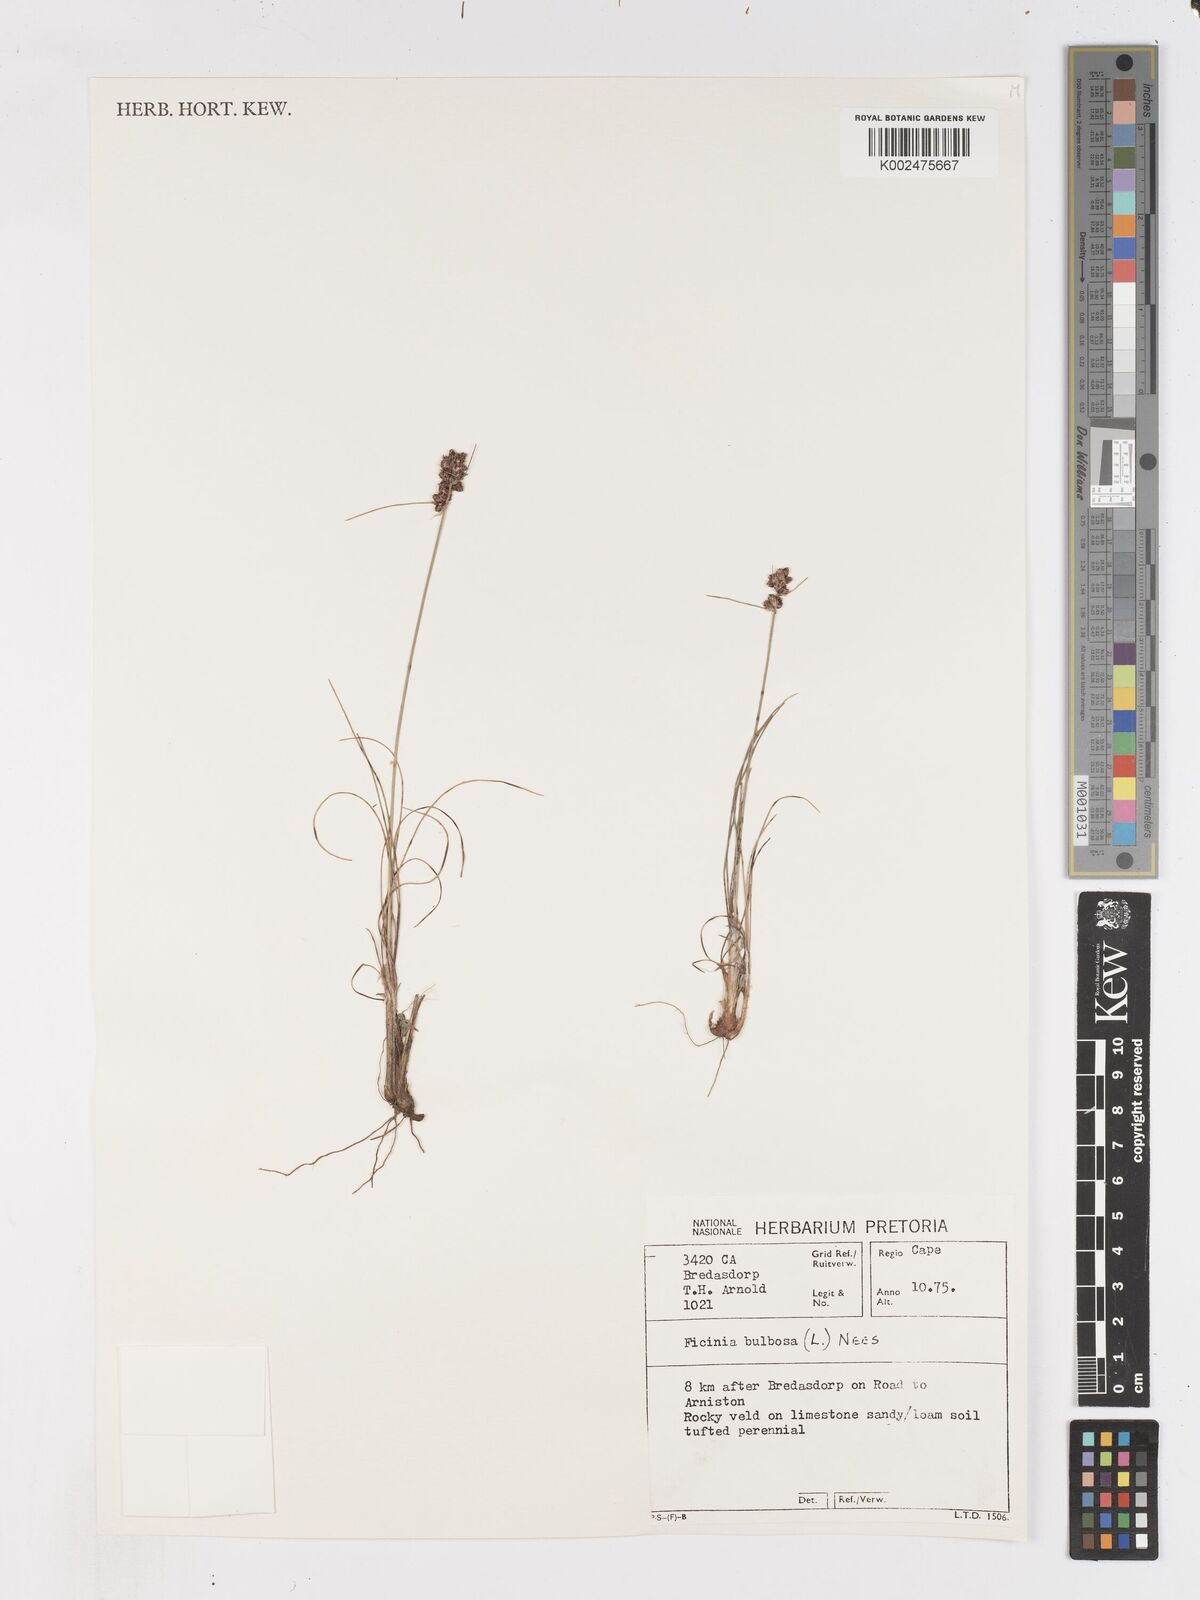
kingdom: Plantae
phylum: Tracheophyta
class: Liliopsida
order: Poales
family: Cyperaceae
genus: Ficinia
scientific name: Ficinia bulbosa
